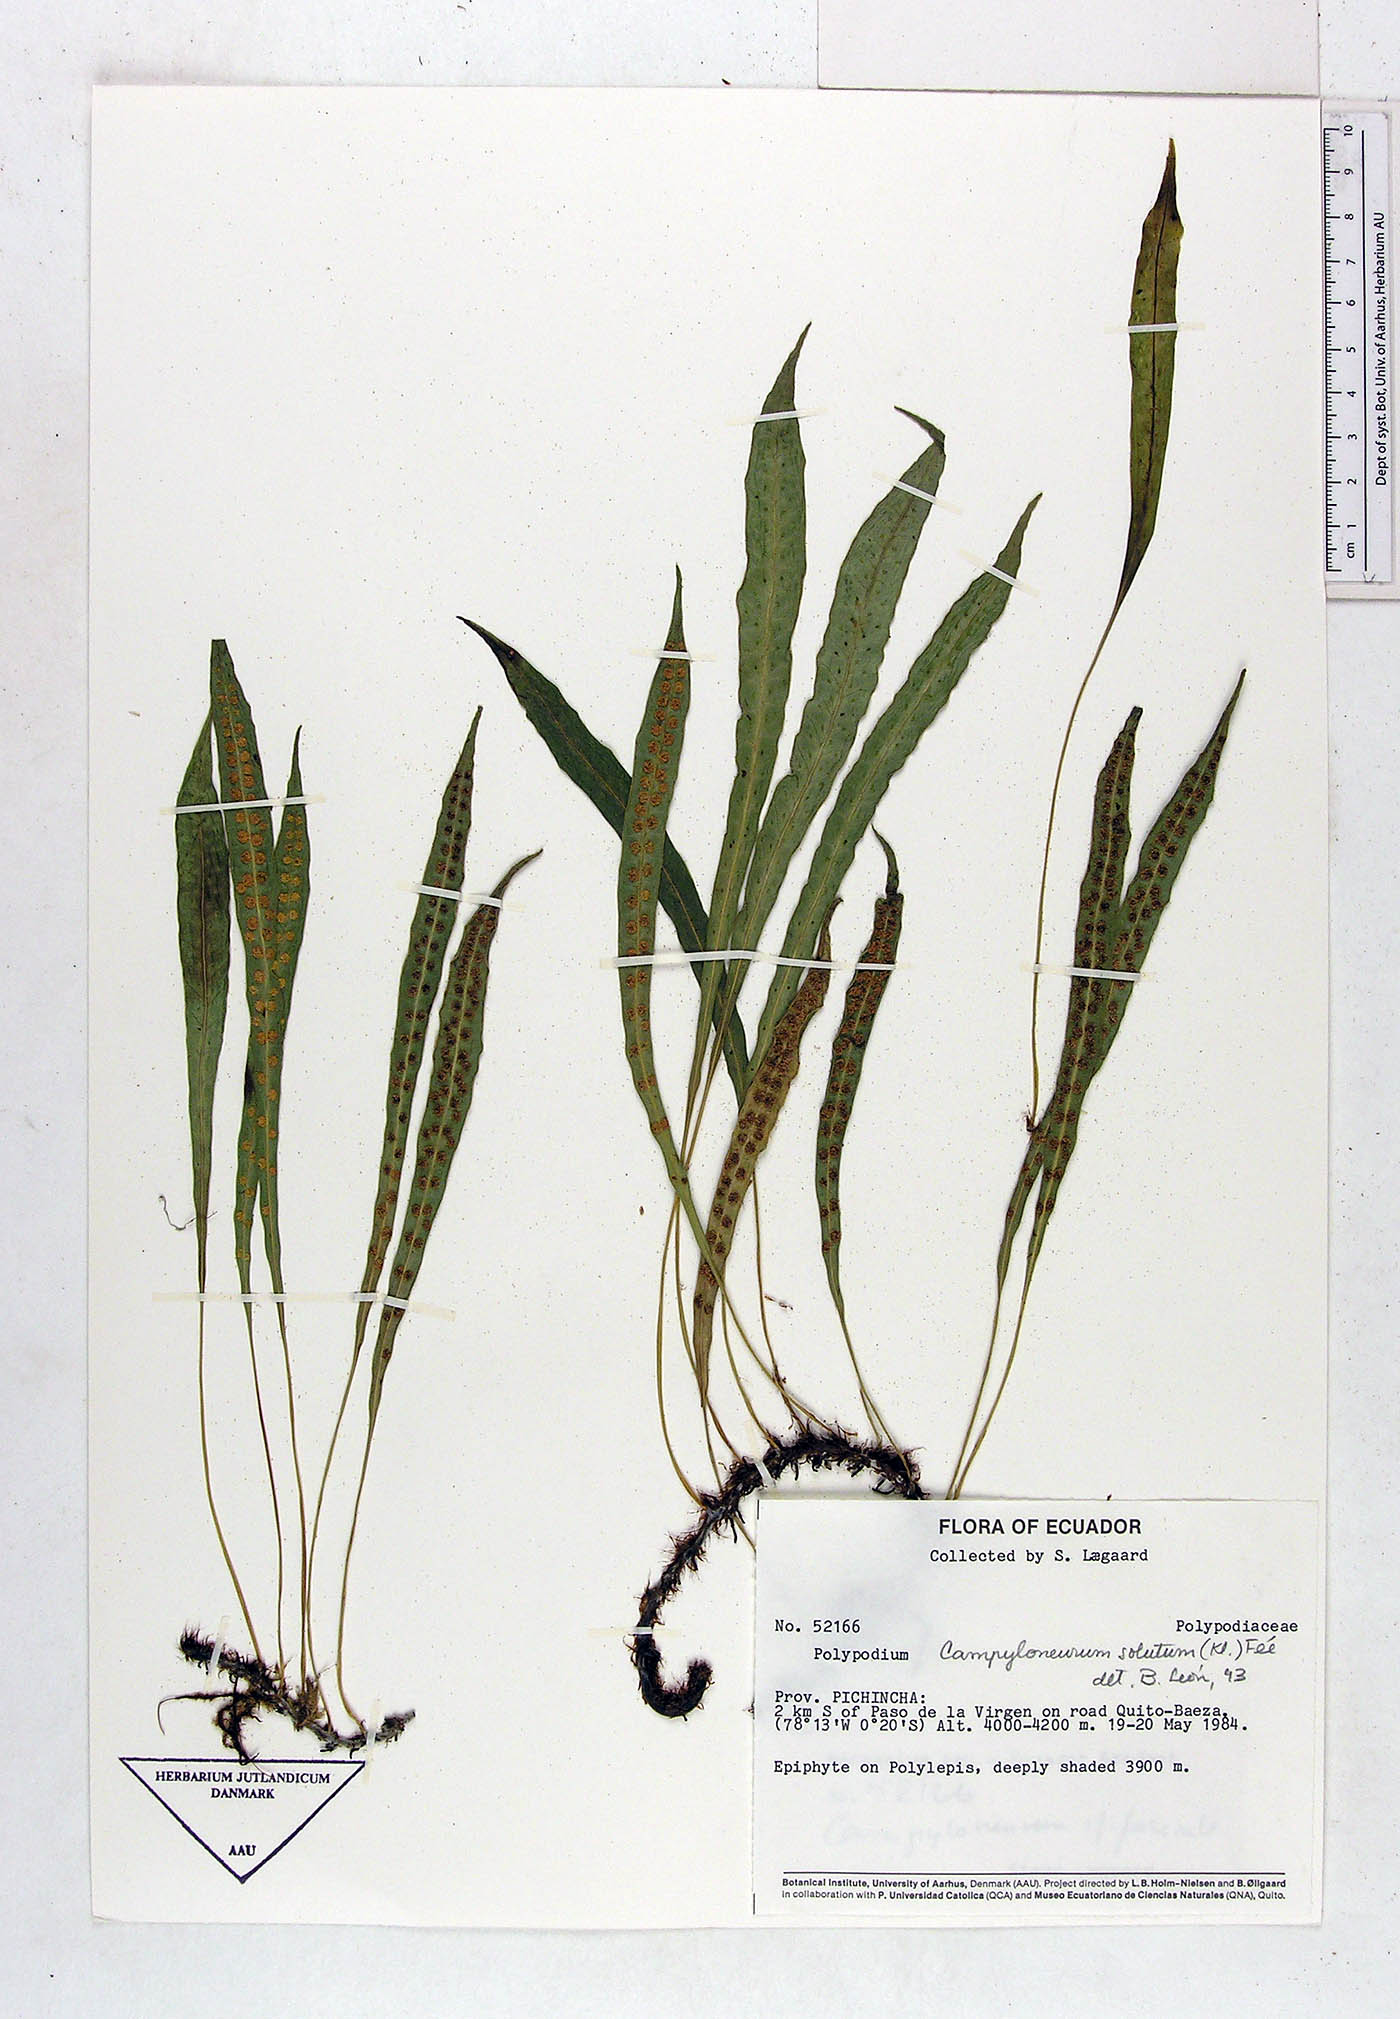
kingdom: Plantae
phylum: Tracheophyta
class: Polypodiopsida
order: Polypodiales
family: Polypodiaceae
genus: Campyloneurum
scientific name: Campyloneurum solutum
